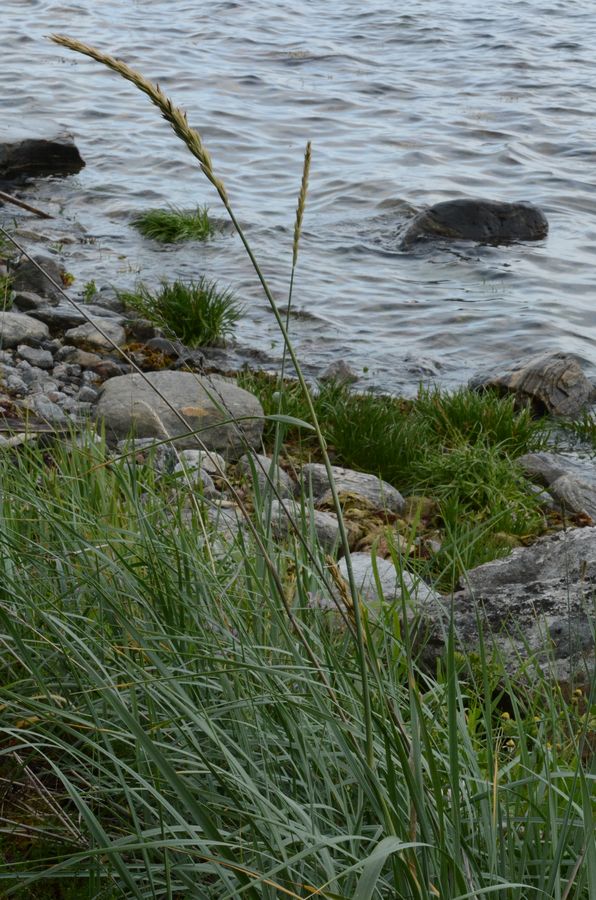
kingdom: Plantae
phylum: Tracheophyta
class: Liliopsida
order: Poales
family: Poaceae
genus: Leymus
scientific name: Leymus arenarius
